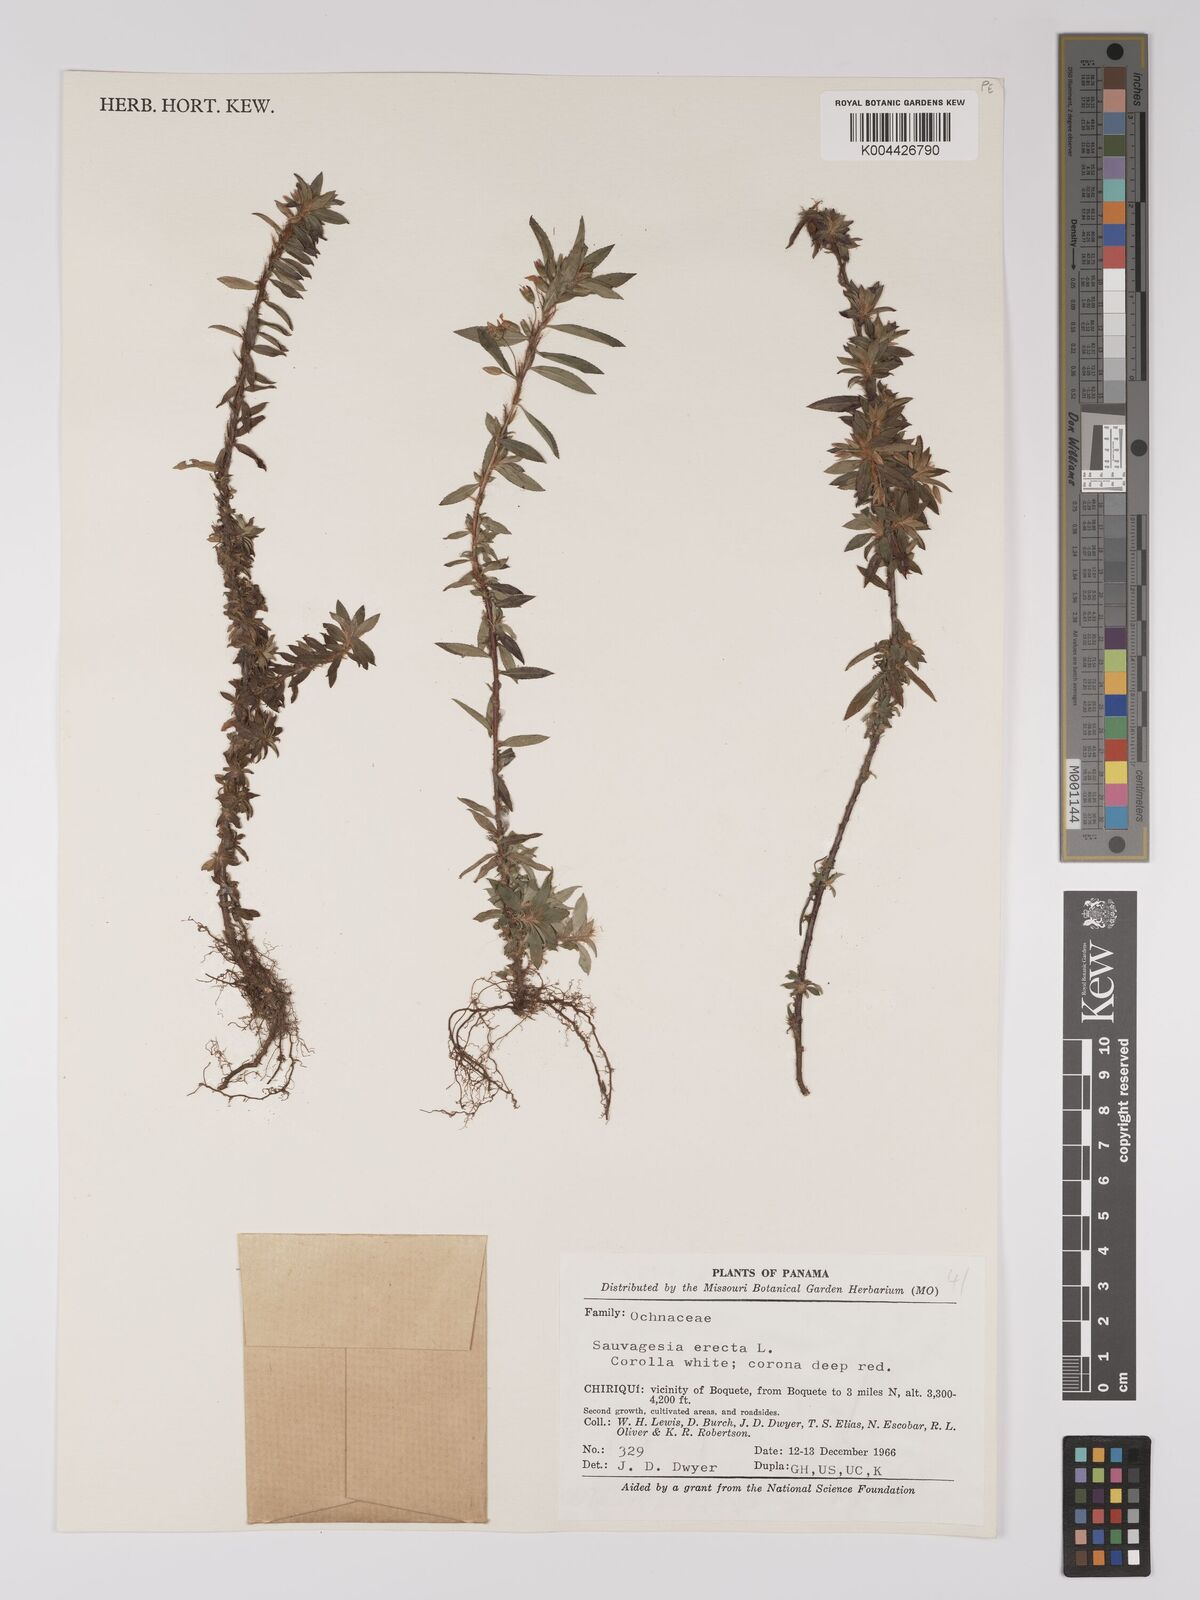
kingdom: Plantae
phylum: Tracheophyta
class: Magnoliopsida
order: Malpighiales
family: Ochnaceae
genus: Sauvagesia
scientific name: Sauvagesia erecta
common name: Creole tea
